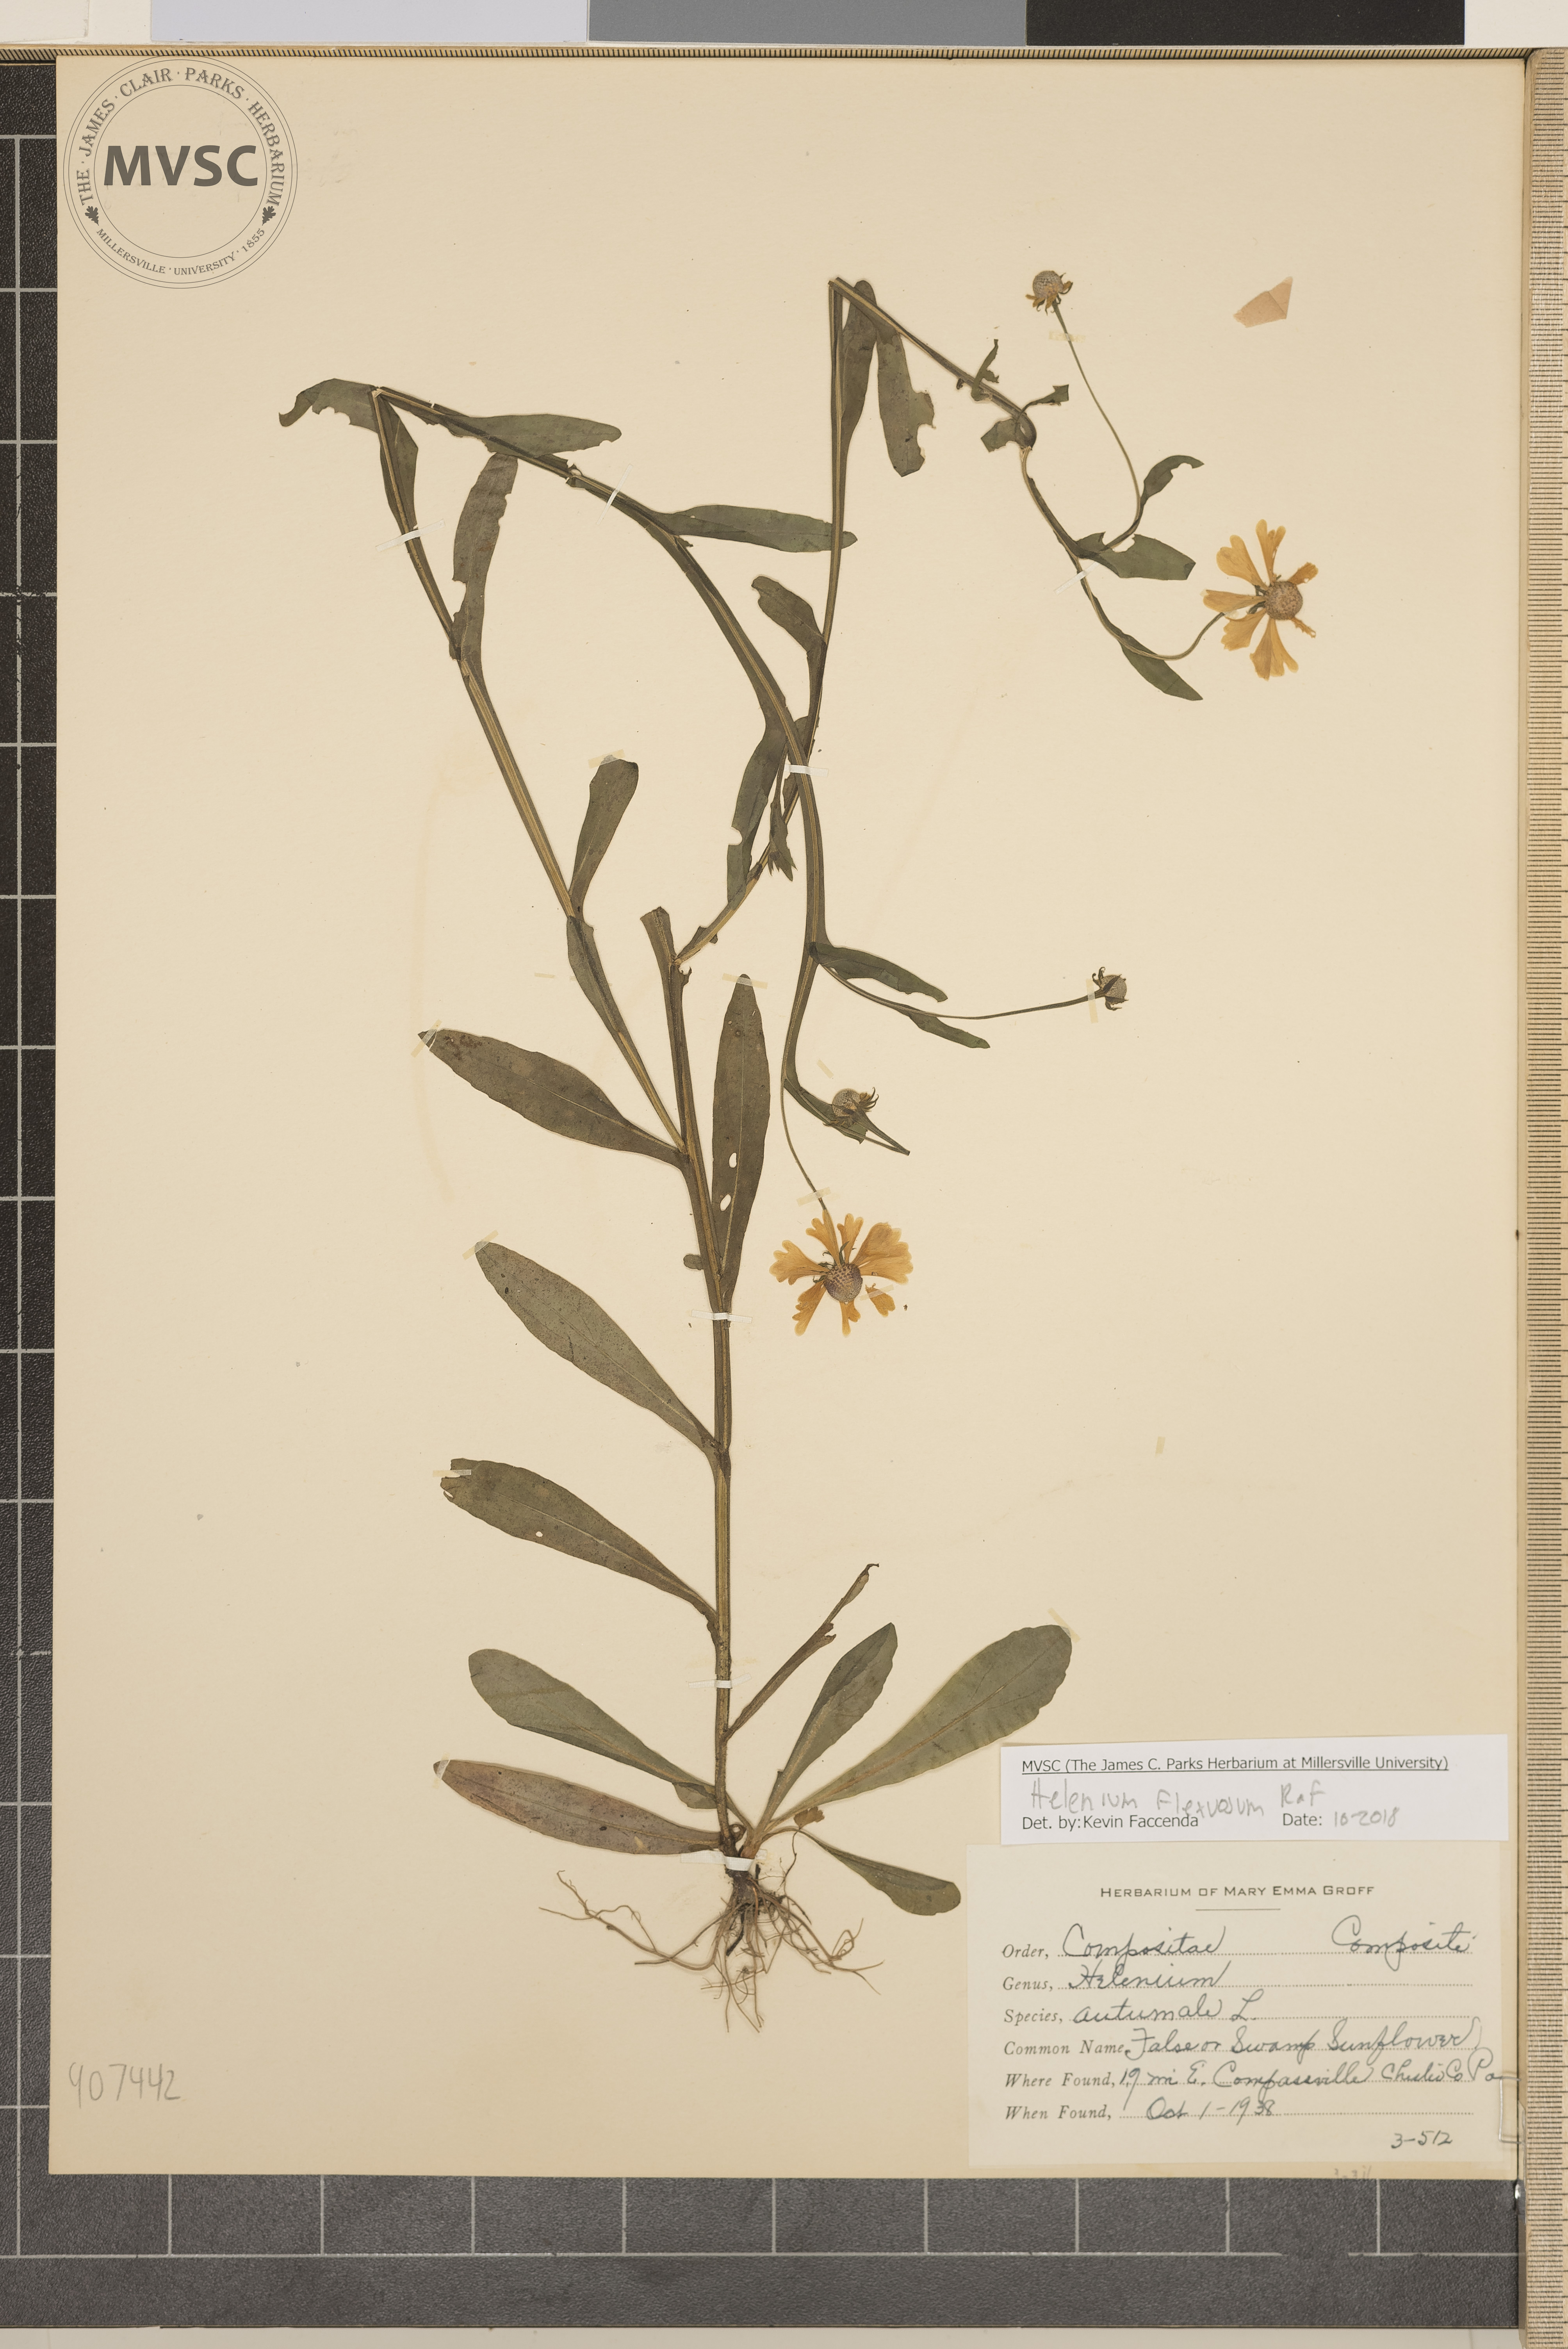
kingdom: Plantae
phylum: Tracheophyta
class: Magnoliopsida
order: Asterales
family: Asteraceae
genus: Helenium
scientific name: Helenium flexuosum
